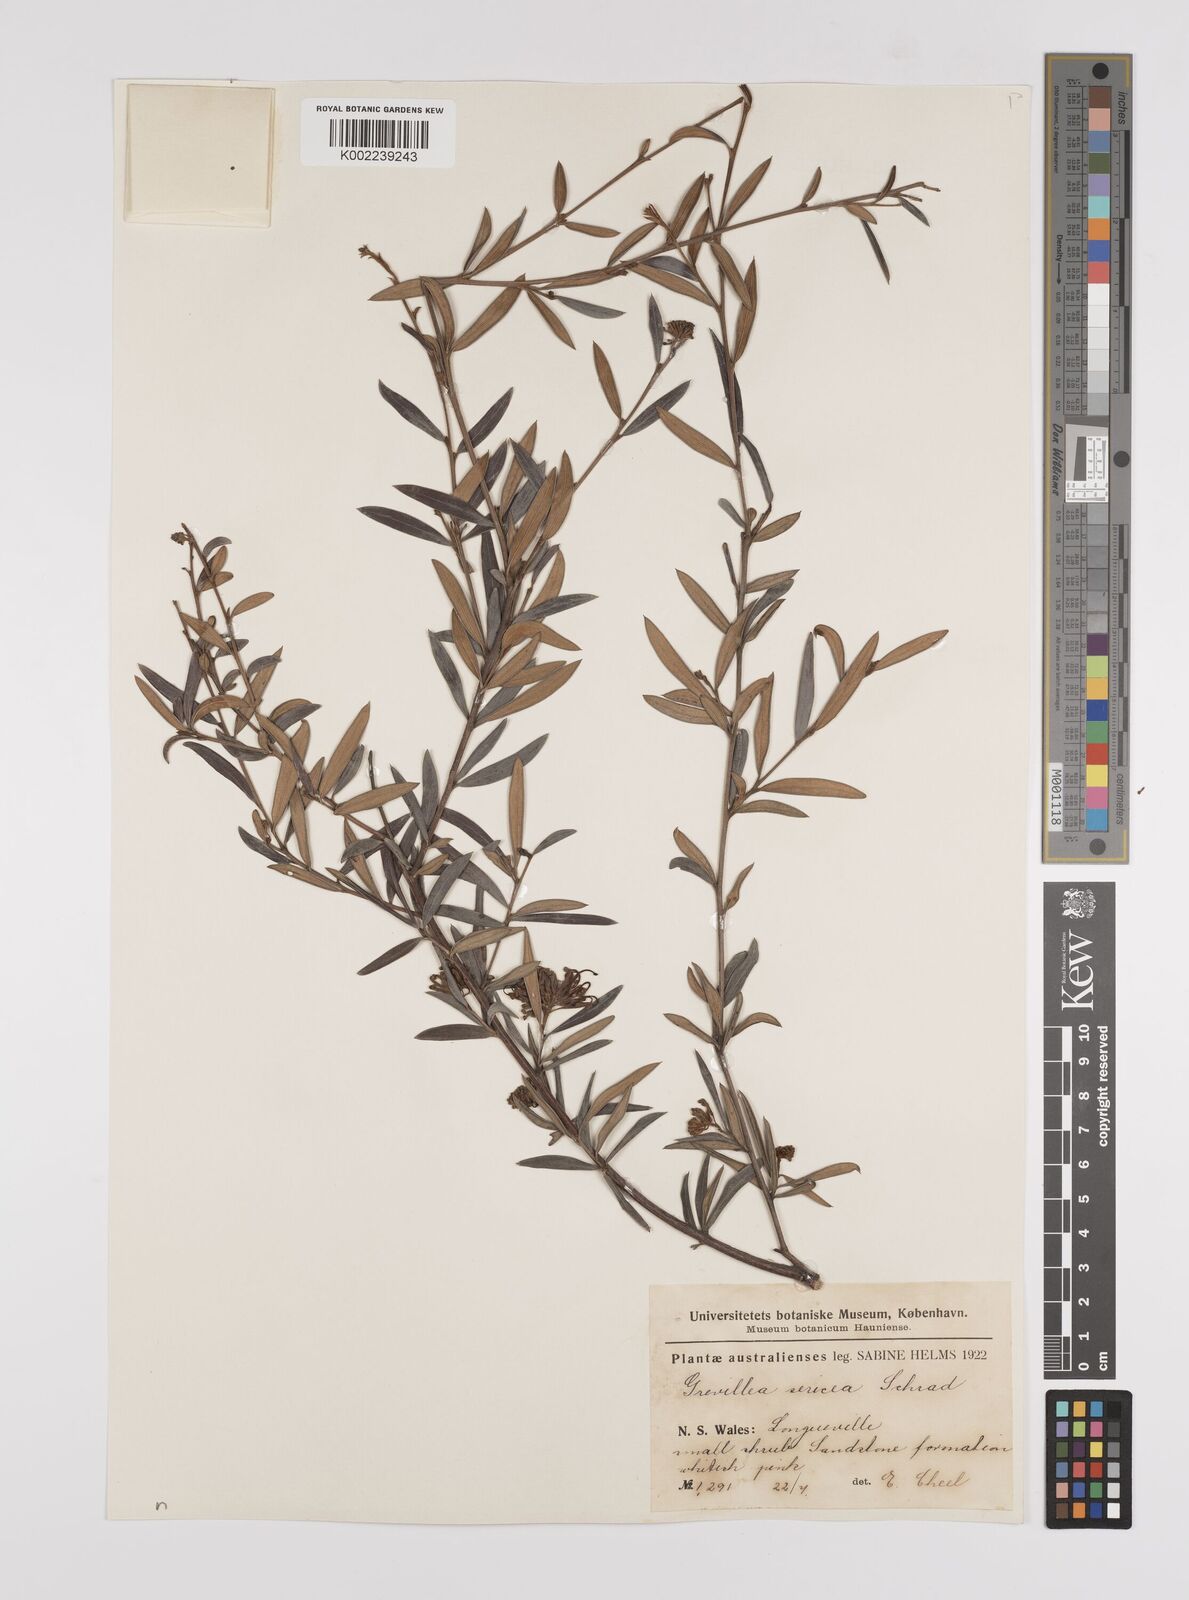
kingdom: Plantae
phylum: Tracheophyta
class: Magnoliopsida
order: Proteales
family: Proteaceae
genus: Grevillea
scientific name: Grevillea sericea
